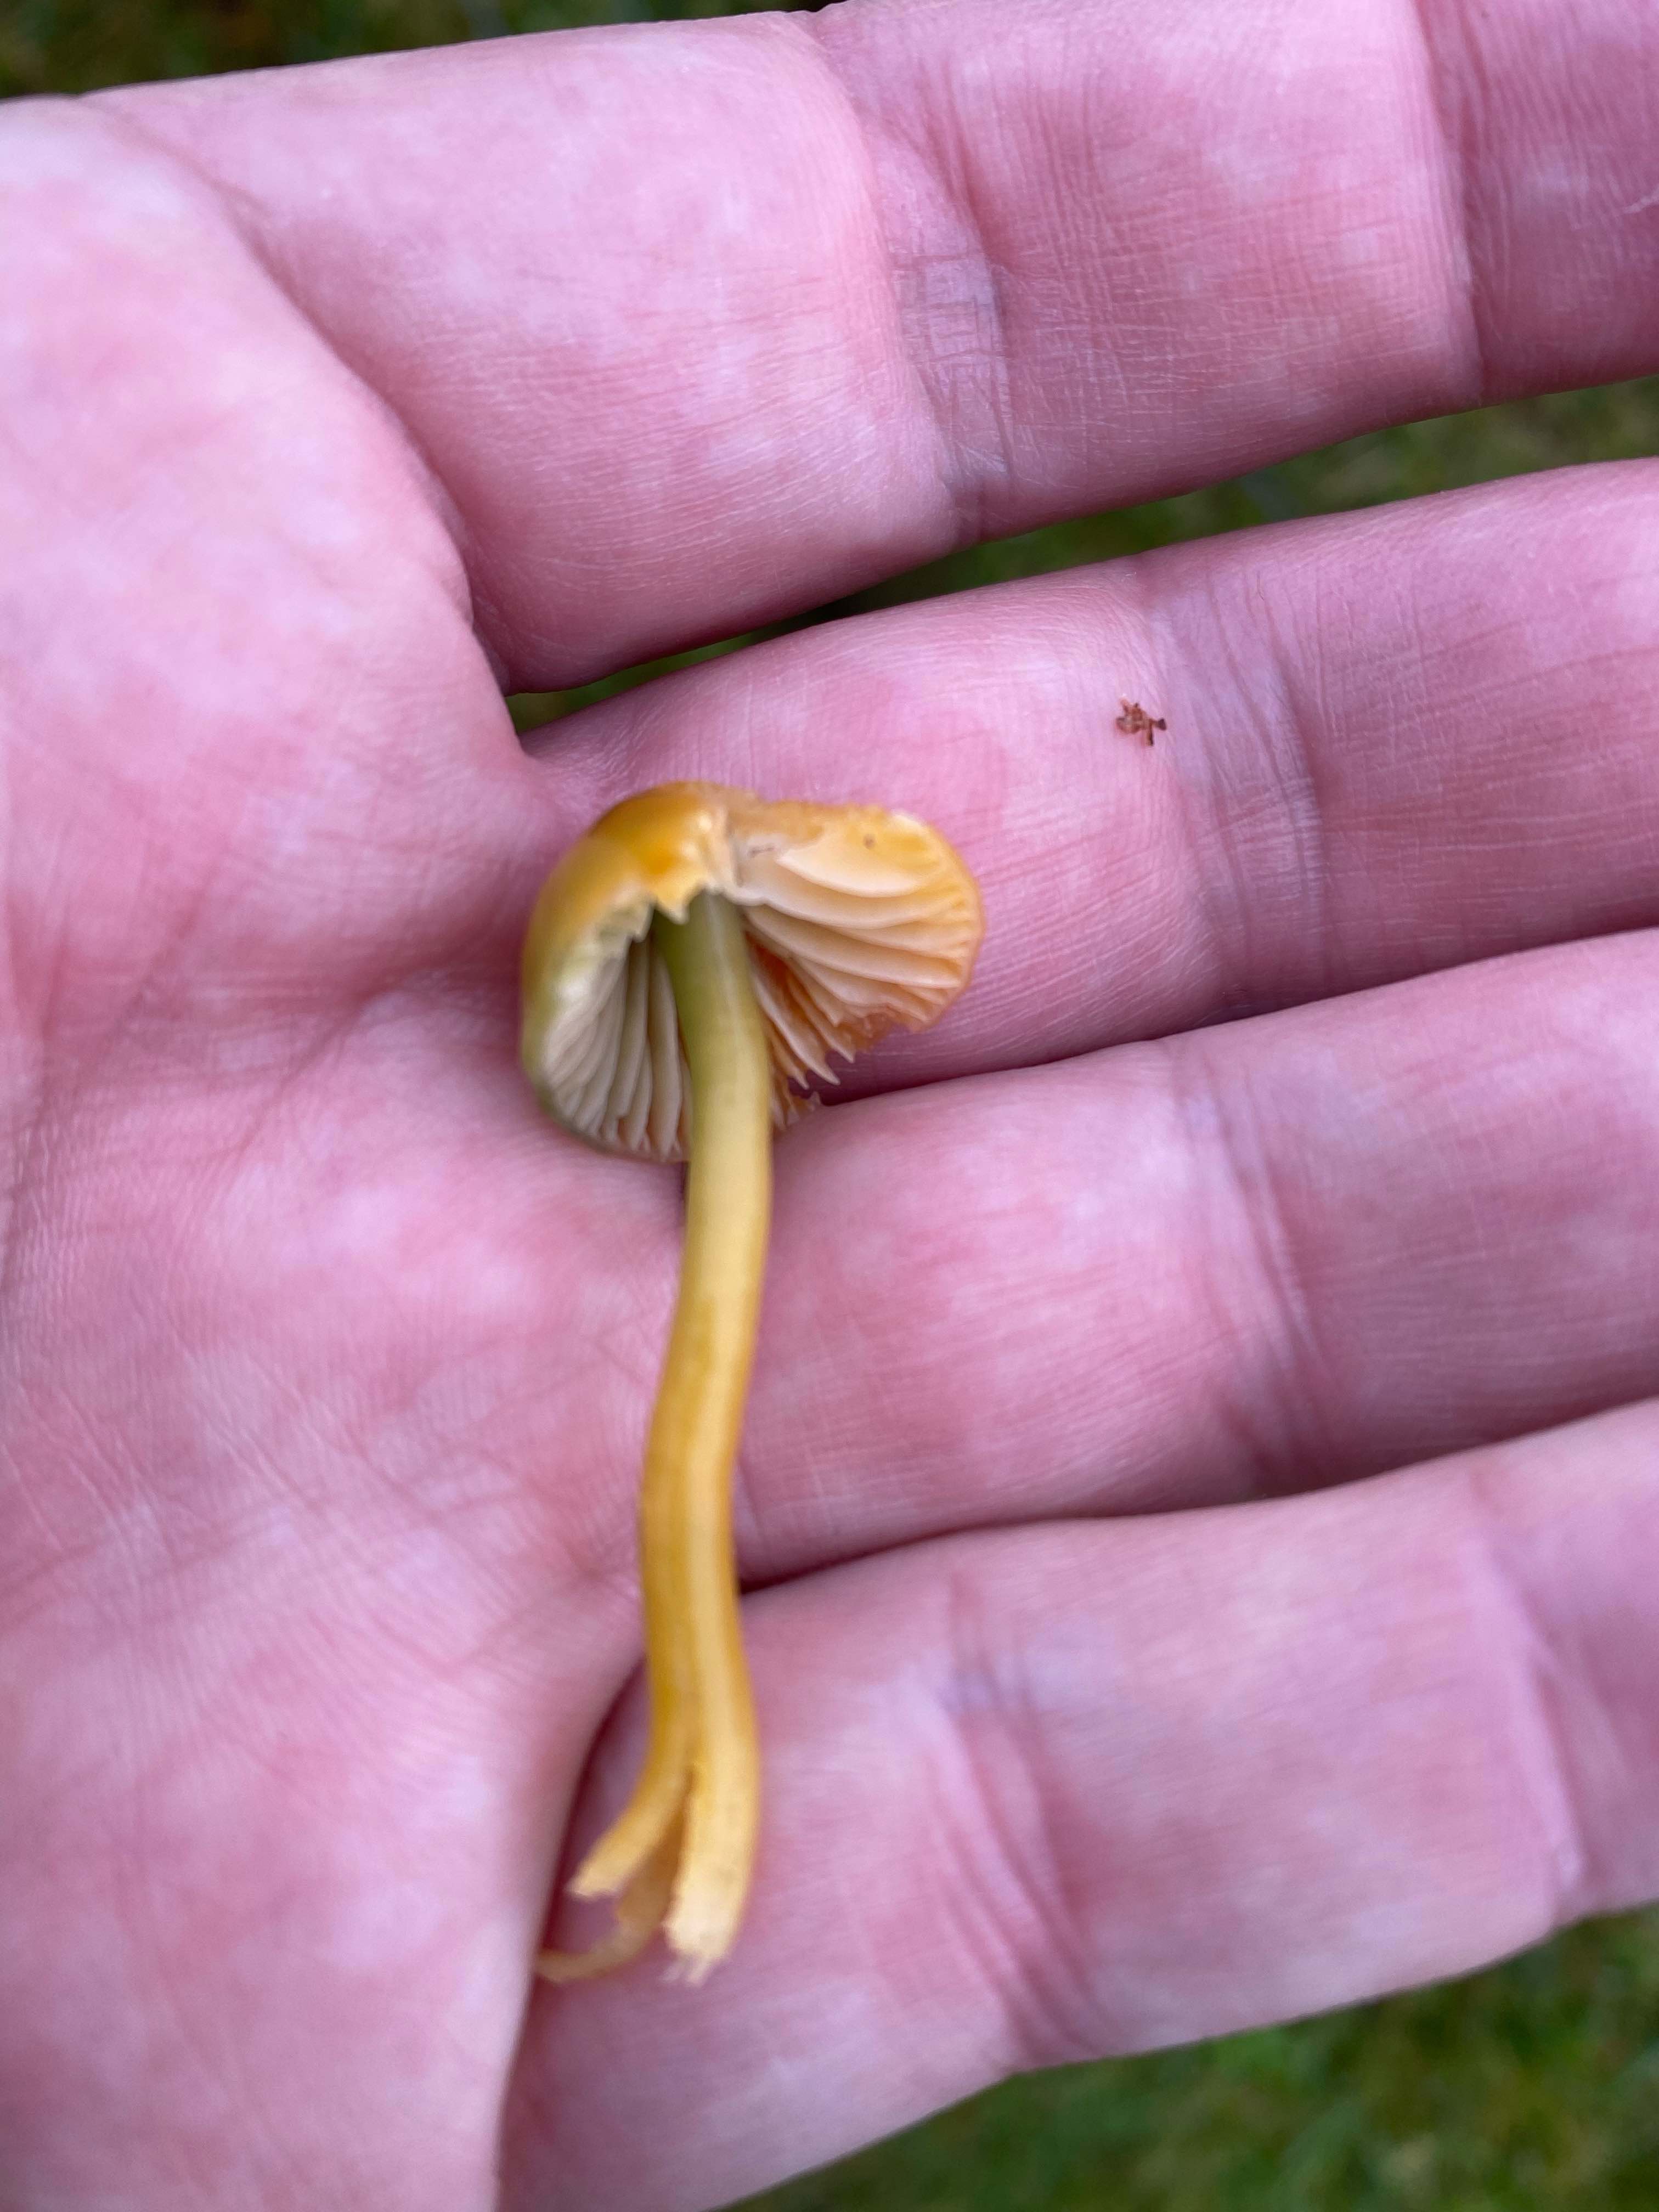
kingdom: Fungi
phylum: Basidiomycota
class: Agaricomycetes
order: Agaricales
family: Hygrophoraceae
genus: Gliophorus
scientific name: Gliophorus psittacinus
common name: papegøje-vokshat
